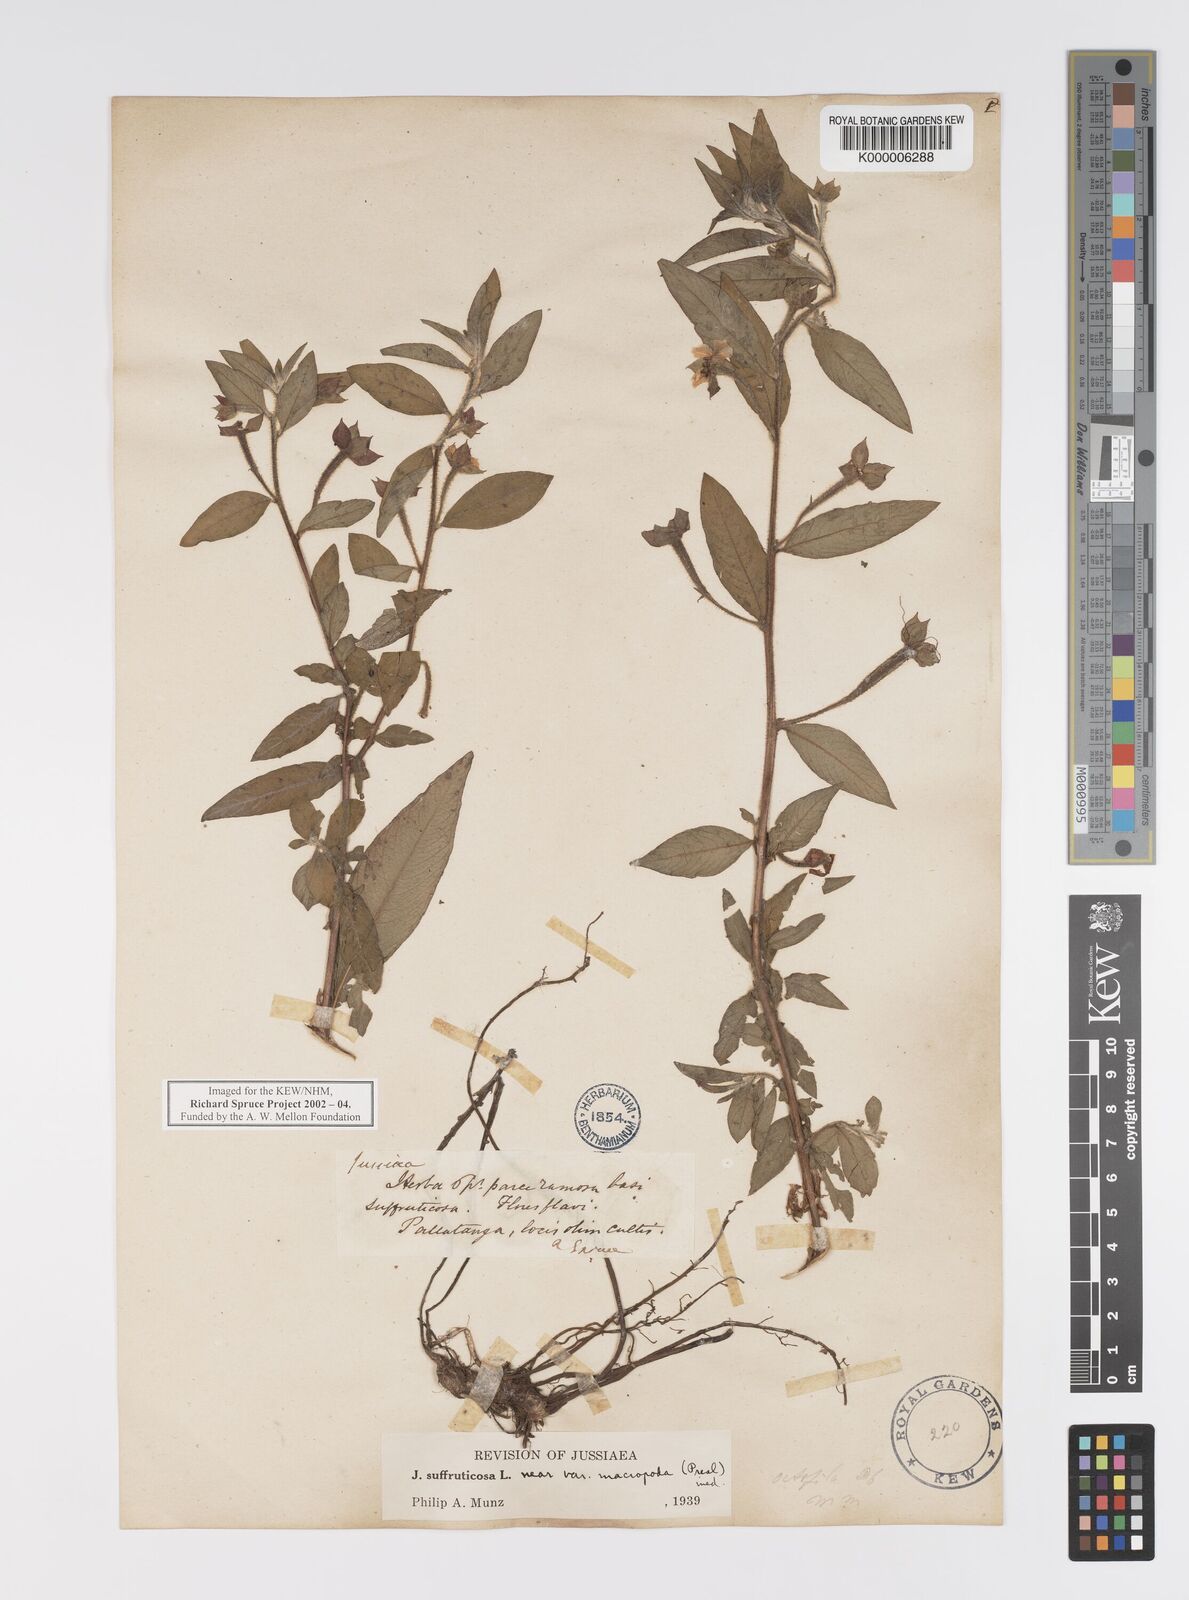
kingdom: Plantae
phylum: Tracheophyta
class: Magnoliopsida
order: Myrtales
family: Onagraceae
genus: Ludwigia
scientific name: Ludwigia suffruticosa
